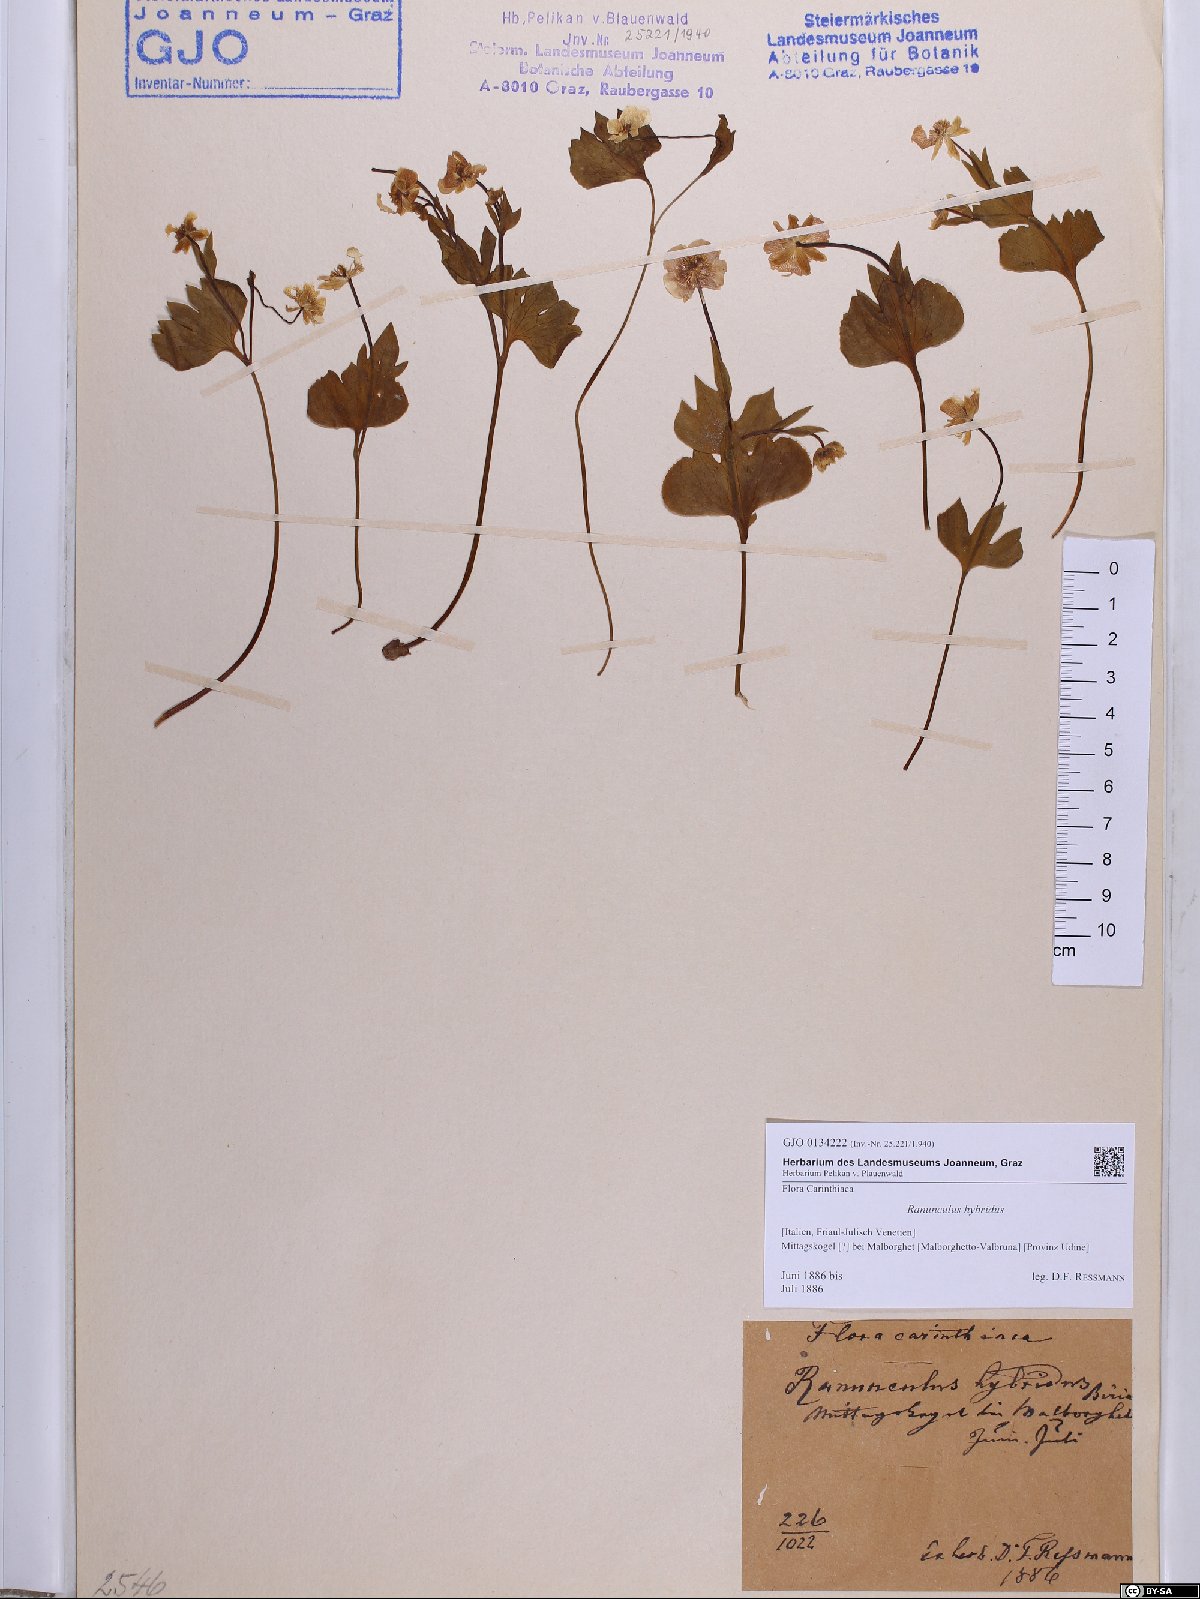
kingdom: Plantae
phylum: Tracheophyta
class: Magnoliopsida
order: Ranunculales
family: Ranunculaceae
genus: Ranunculus
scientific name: Ranunculus hybridus
